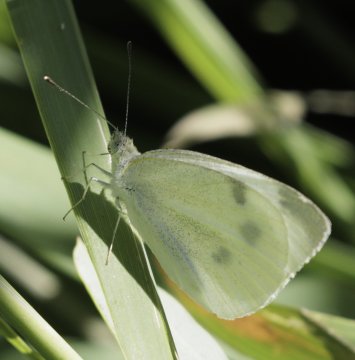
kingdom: Animalia
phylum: Arthropoda
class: Insecta
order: Lepidoptera
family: Pieridae
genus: Pieris
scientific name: Pieris rapae
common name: Cabbage White
